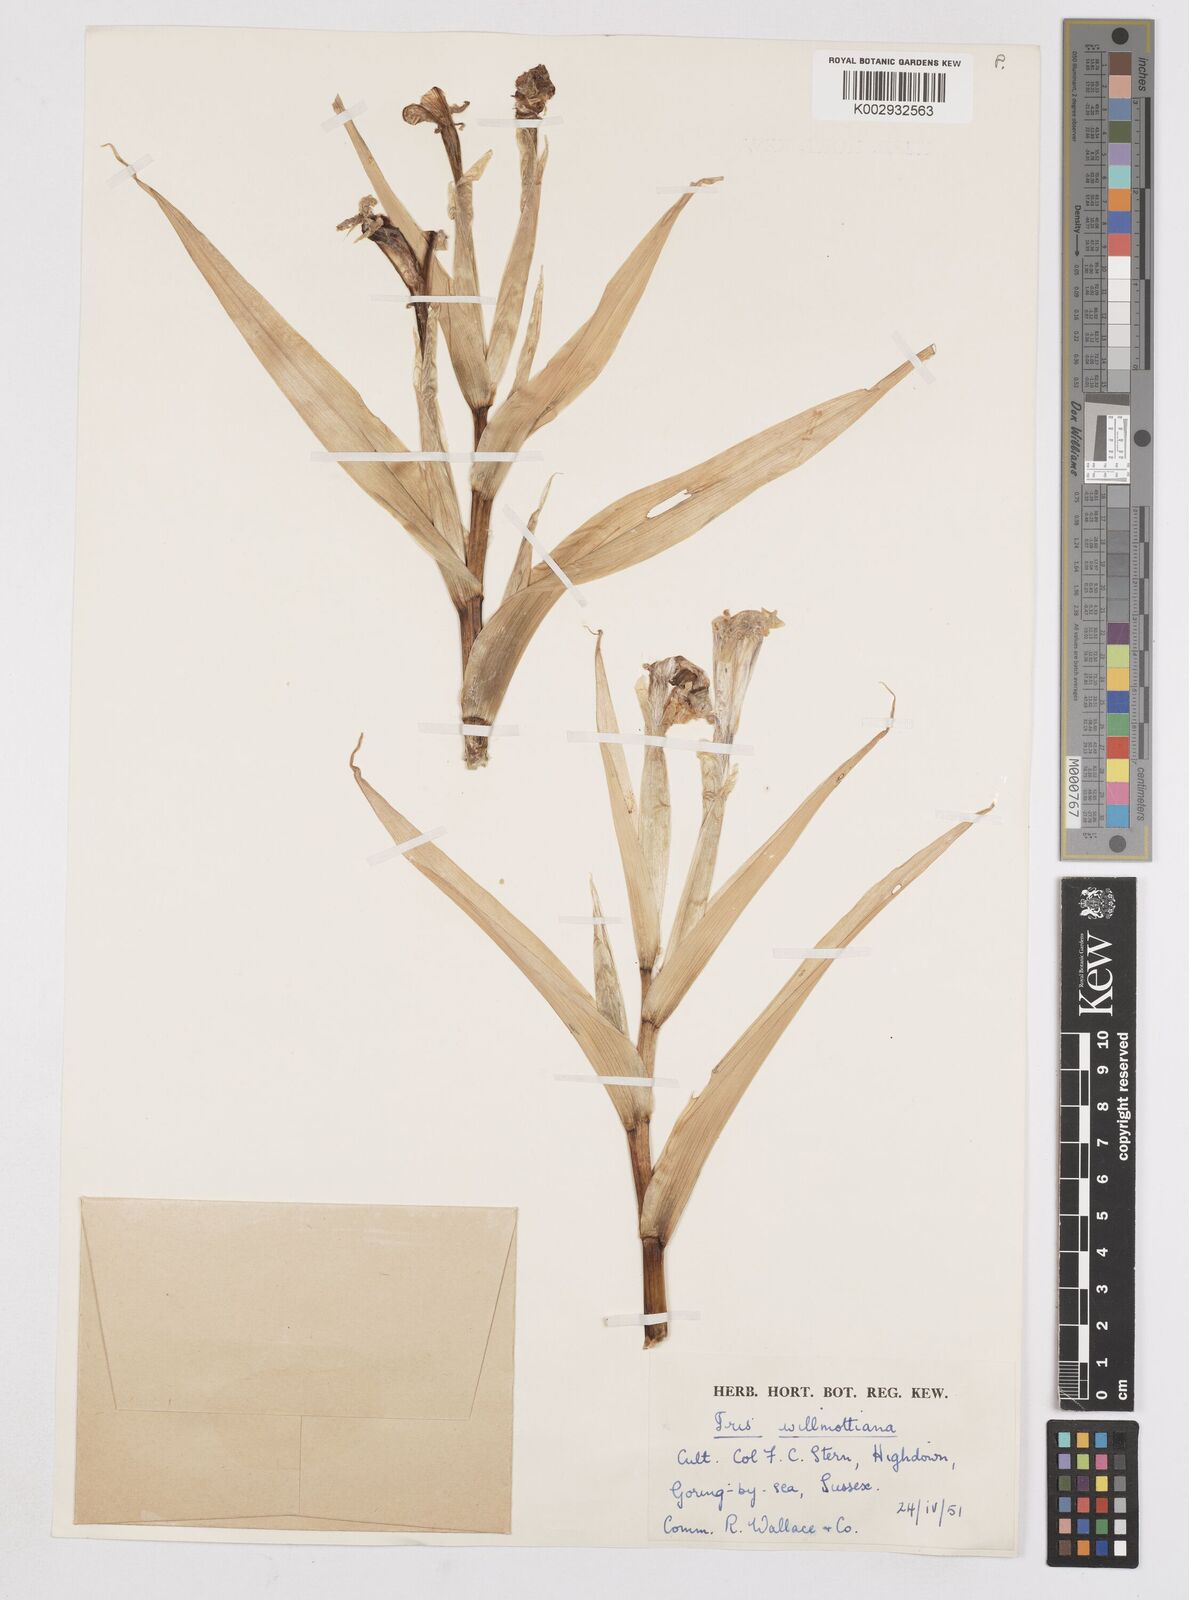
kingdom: Plantae
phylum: Tracheophyta
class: Liliopsida
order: Asparagales
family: Iridaceae
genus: Iris
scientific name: Iris orchioides
